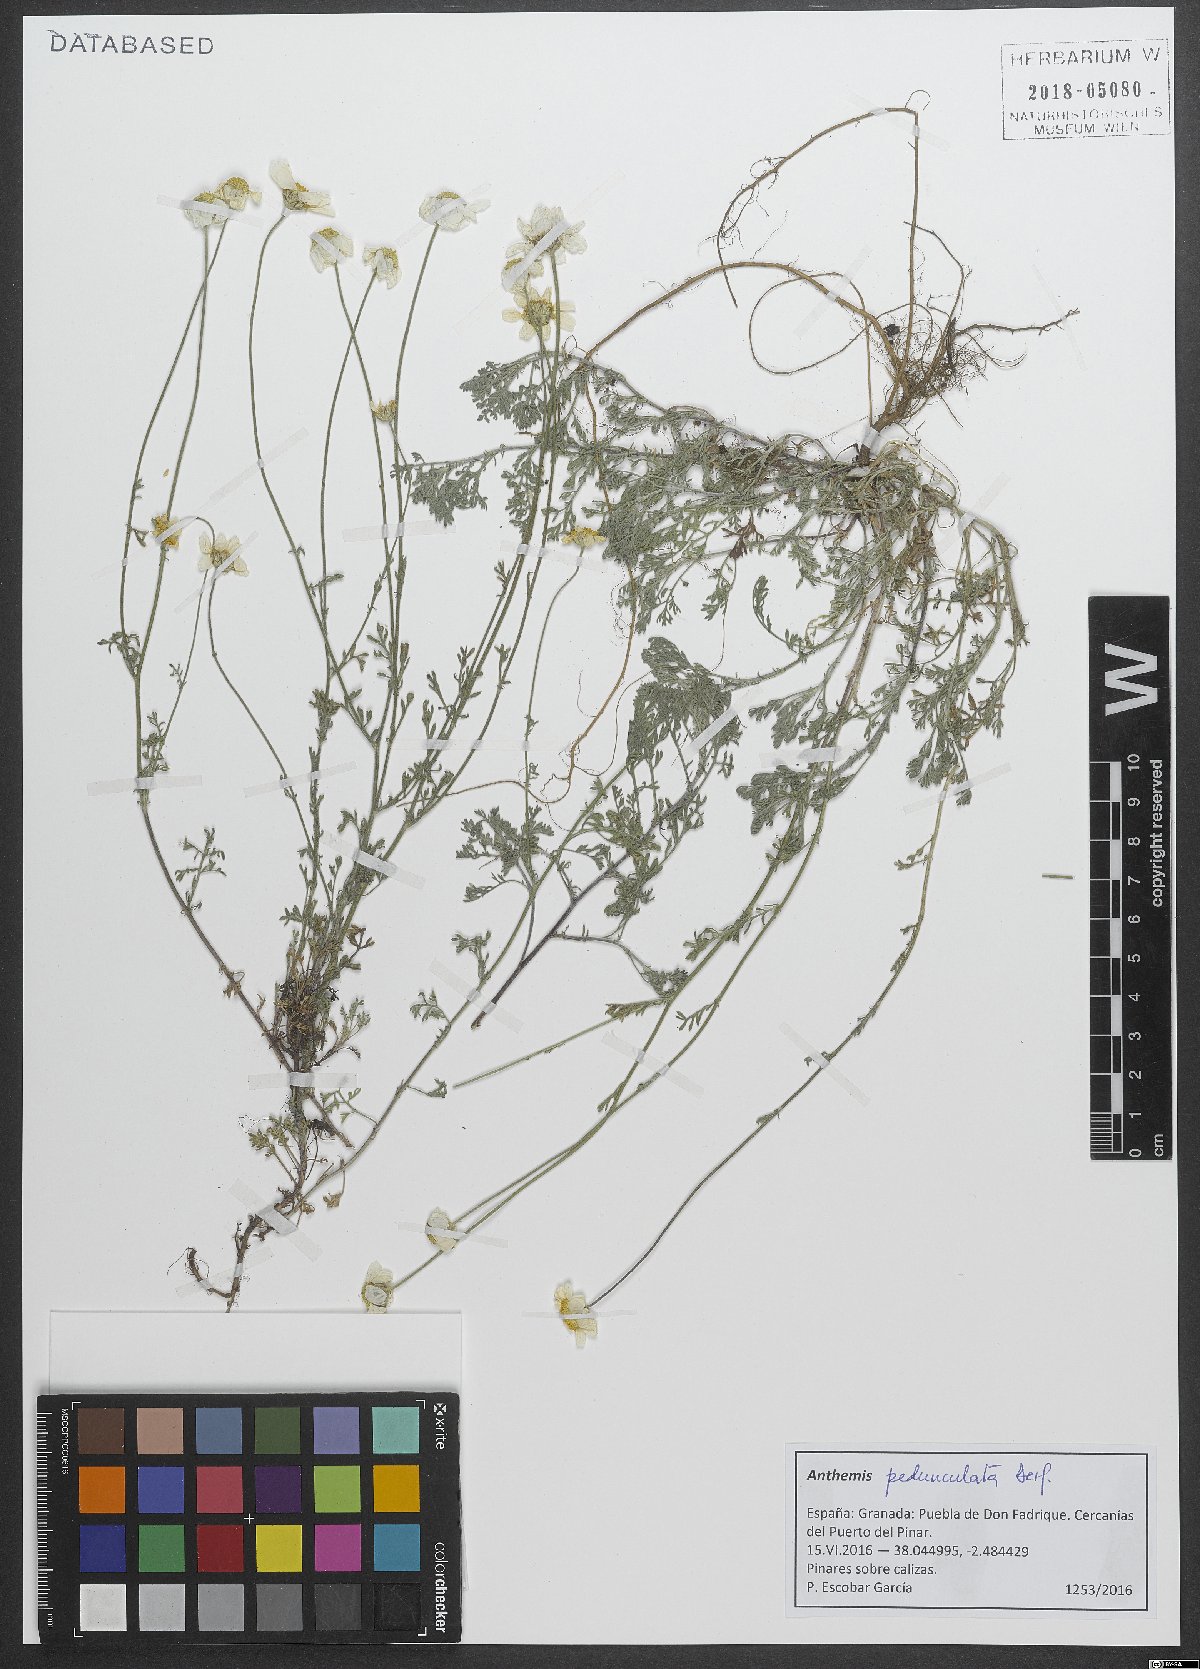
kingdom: Plantae
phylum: Tracheophyta
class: Magnoliopsida
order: Asterales
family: Asteraceae
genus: Anthemis
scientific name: Anthemis pedunculata
